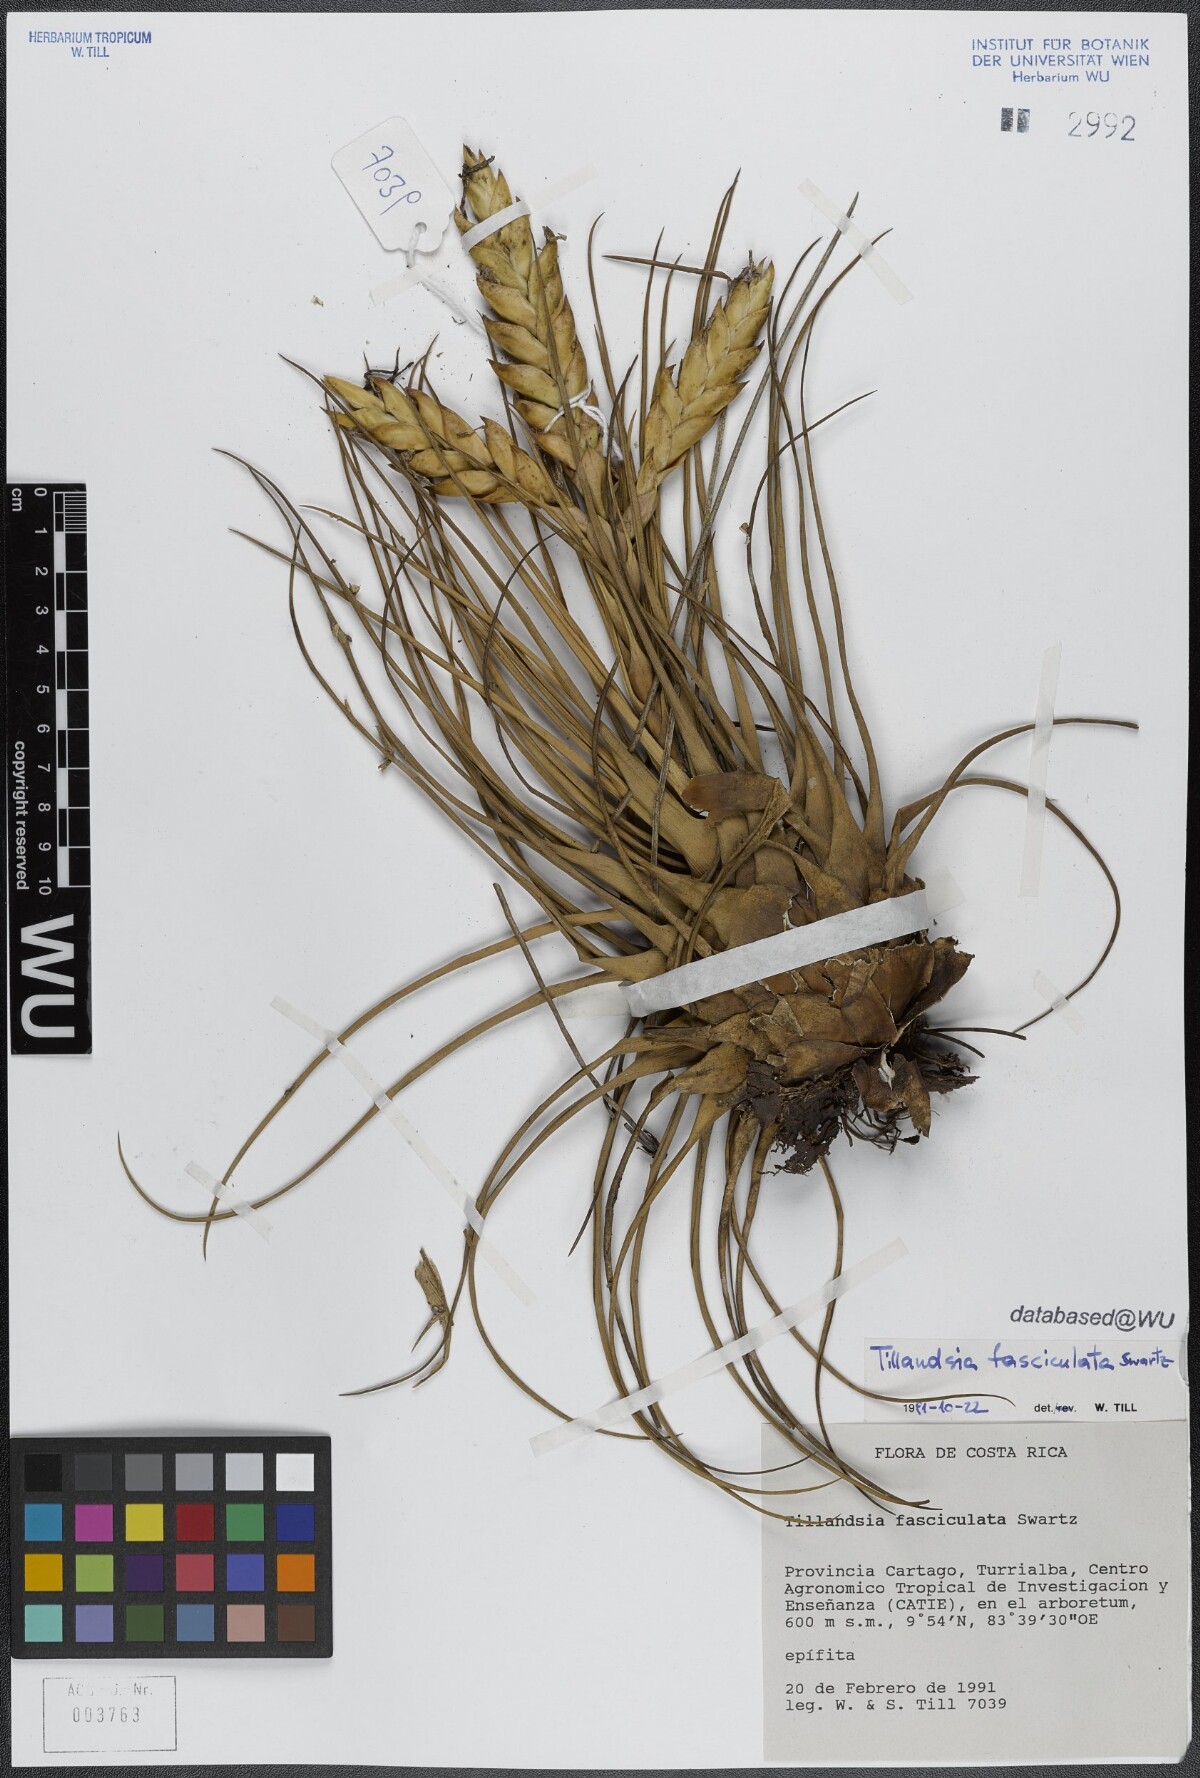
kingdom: Plantae
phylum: Tracheophyta
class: Liliopsida
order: Poales
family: Bromeliaceae
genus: Tillandsia
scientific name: Tillandsia fasciculata
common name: Giant airplant
